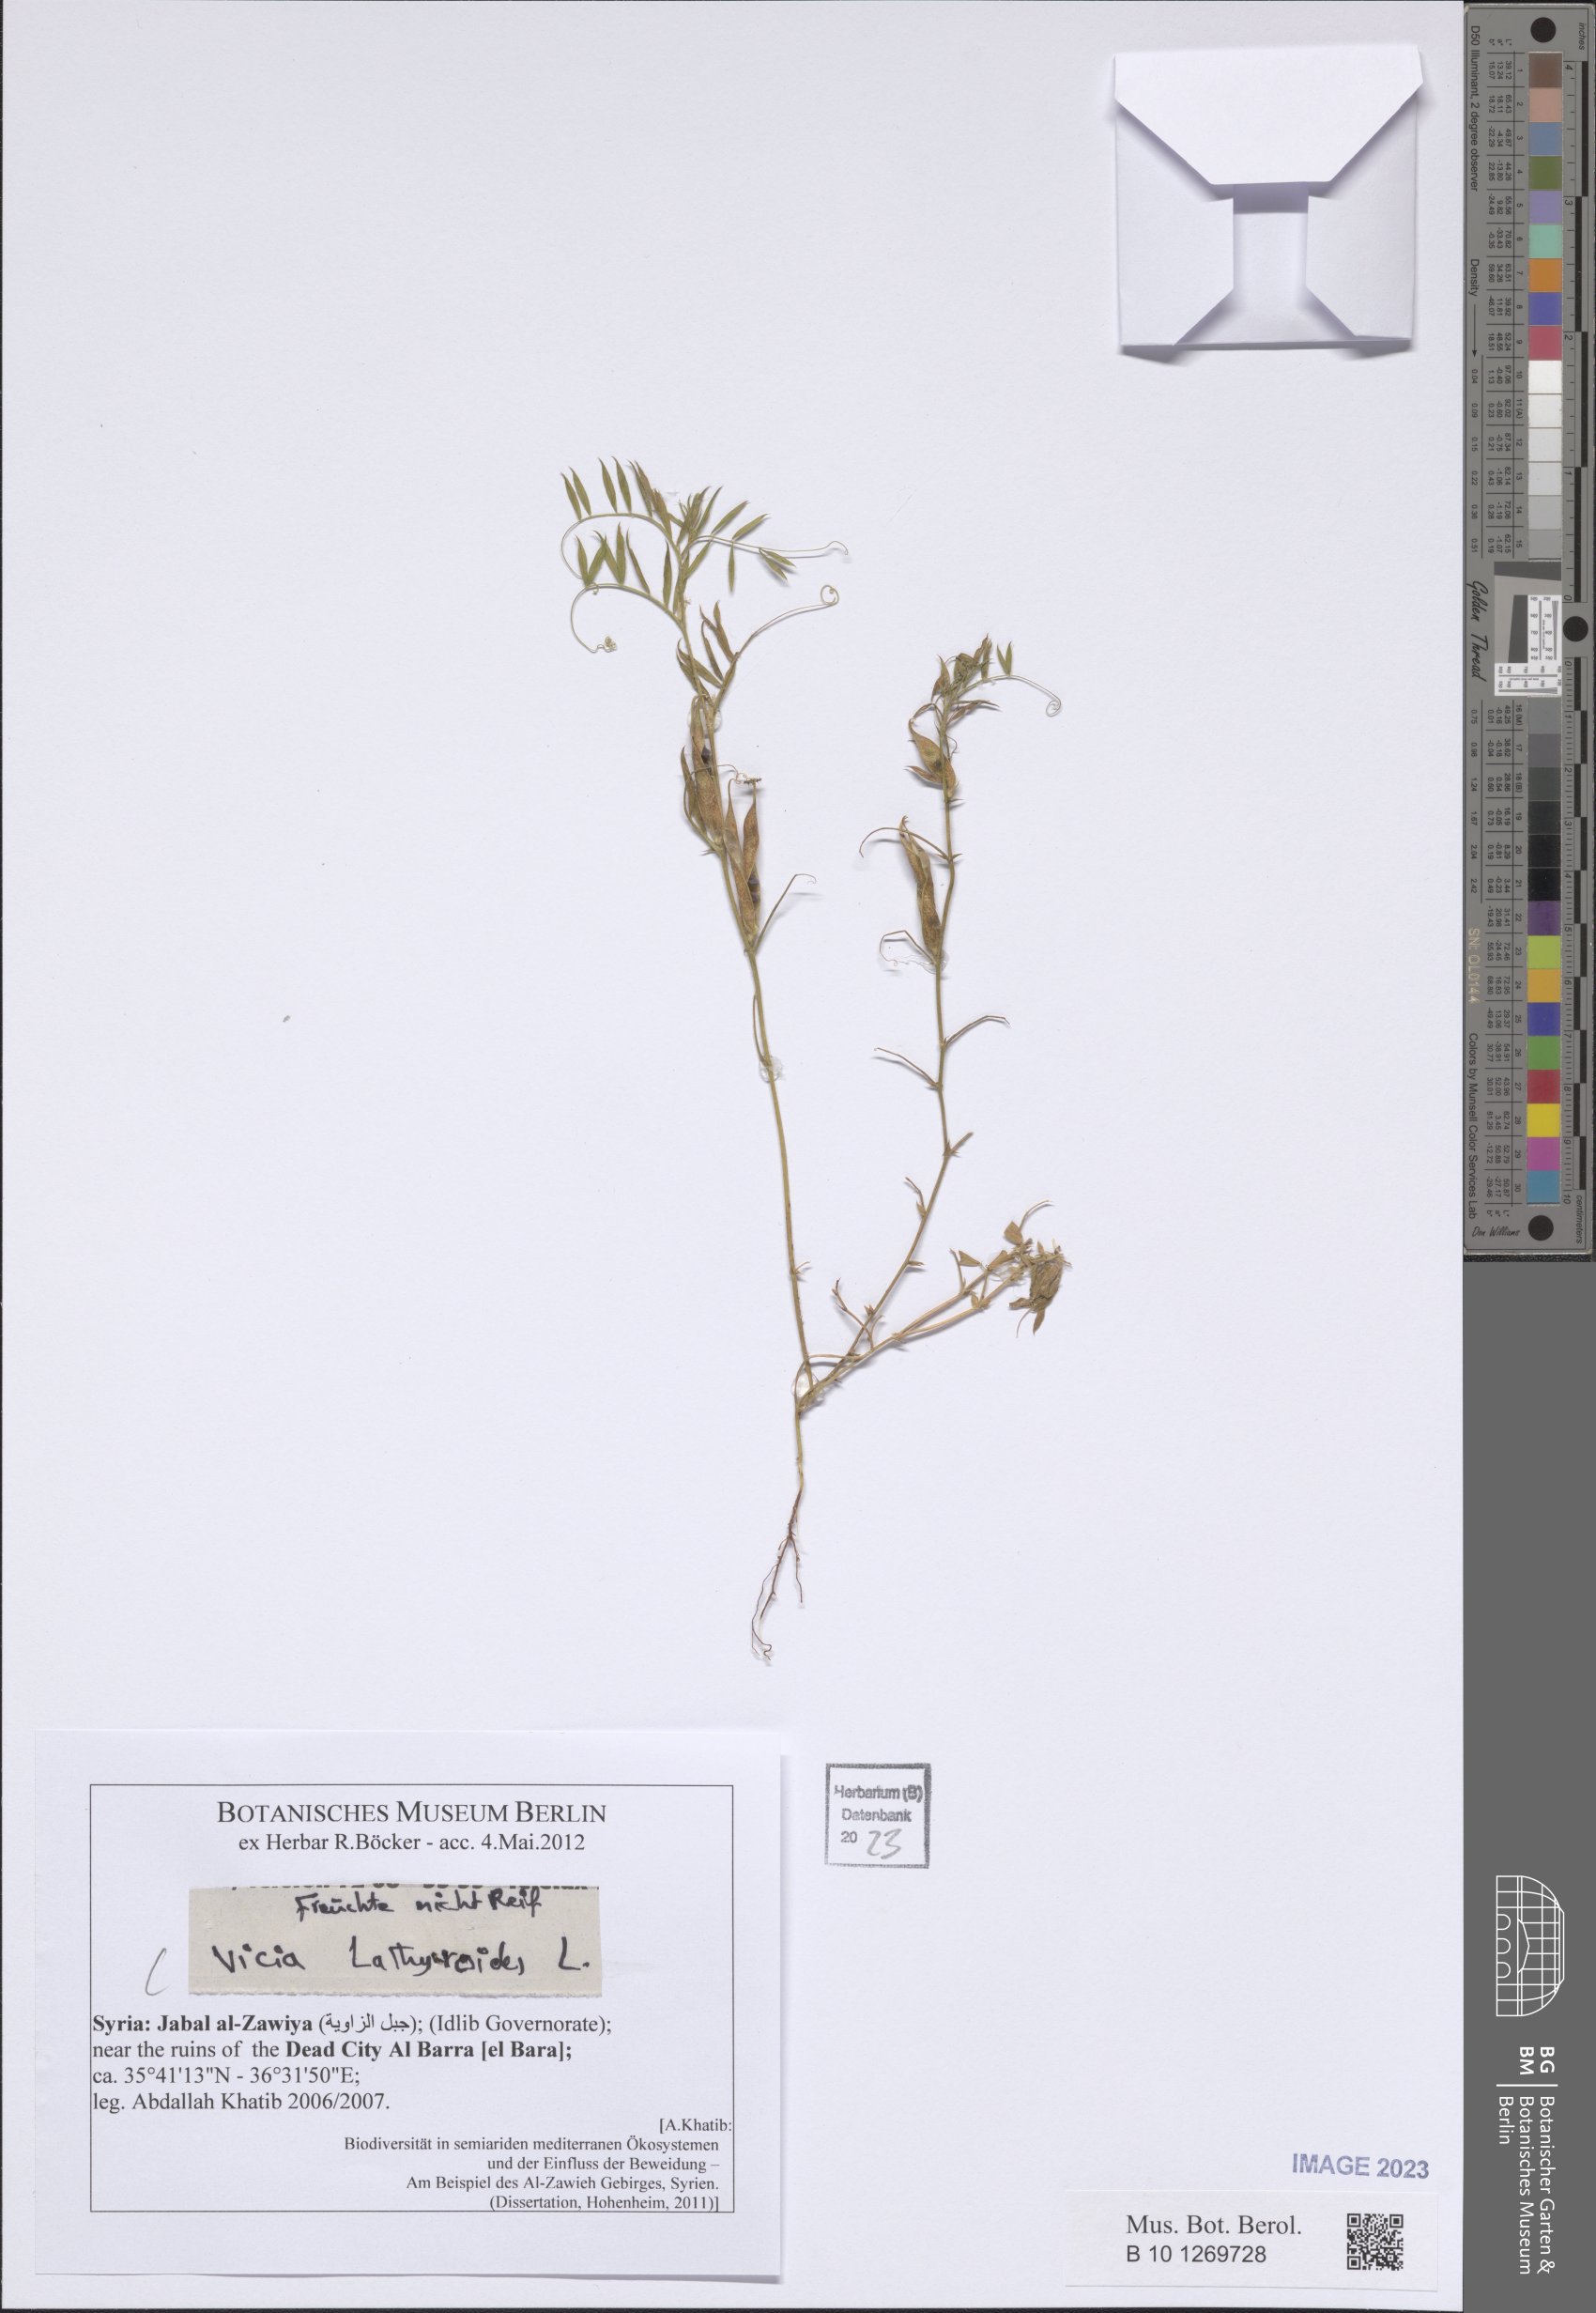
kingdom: Plantae
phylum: Tracheophyta
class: Magnoliopsida
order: Fabales
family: Fabaceae
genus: Vicia
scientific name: Vicia lathyroides
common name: Spring vetch
